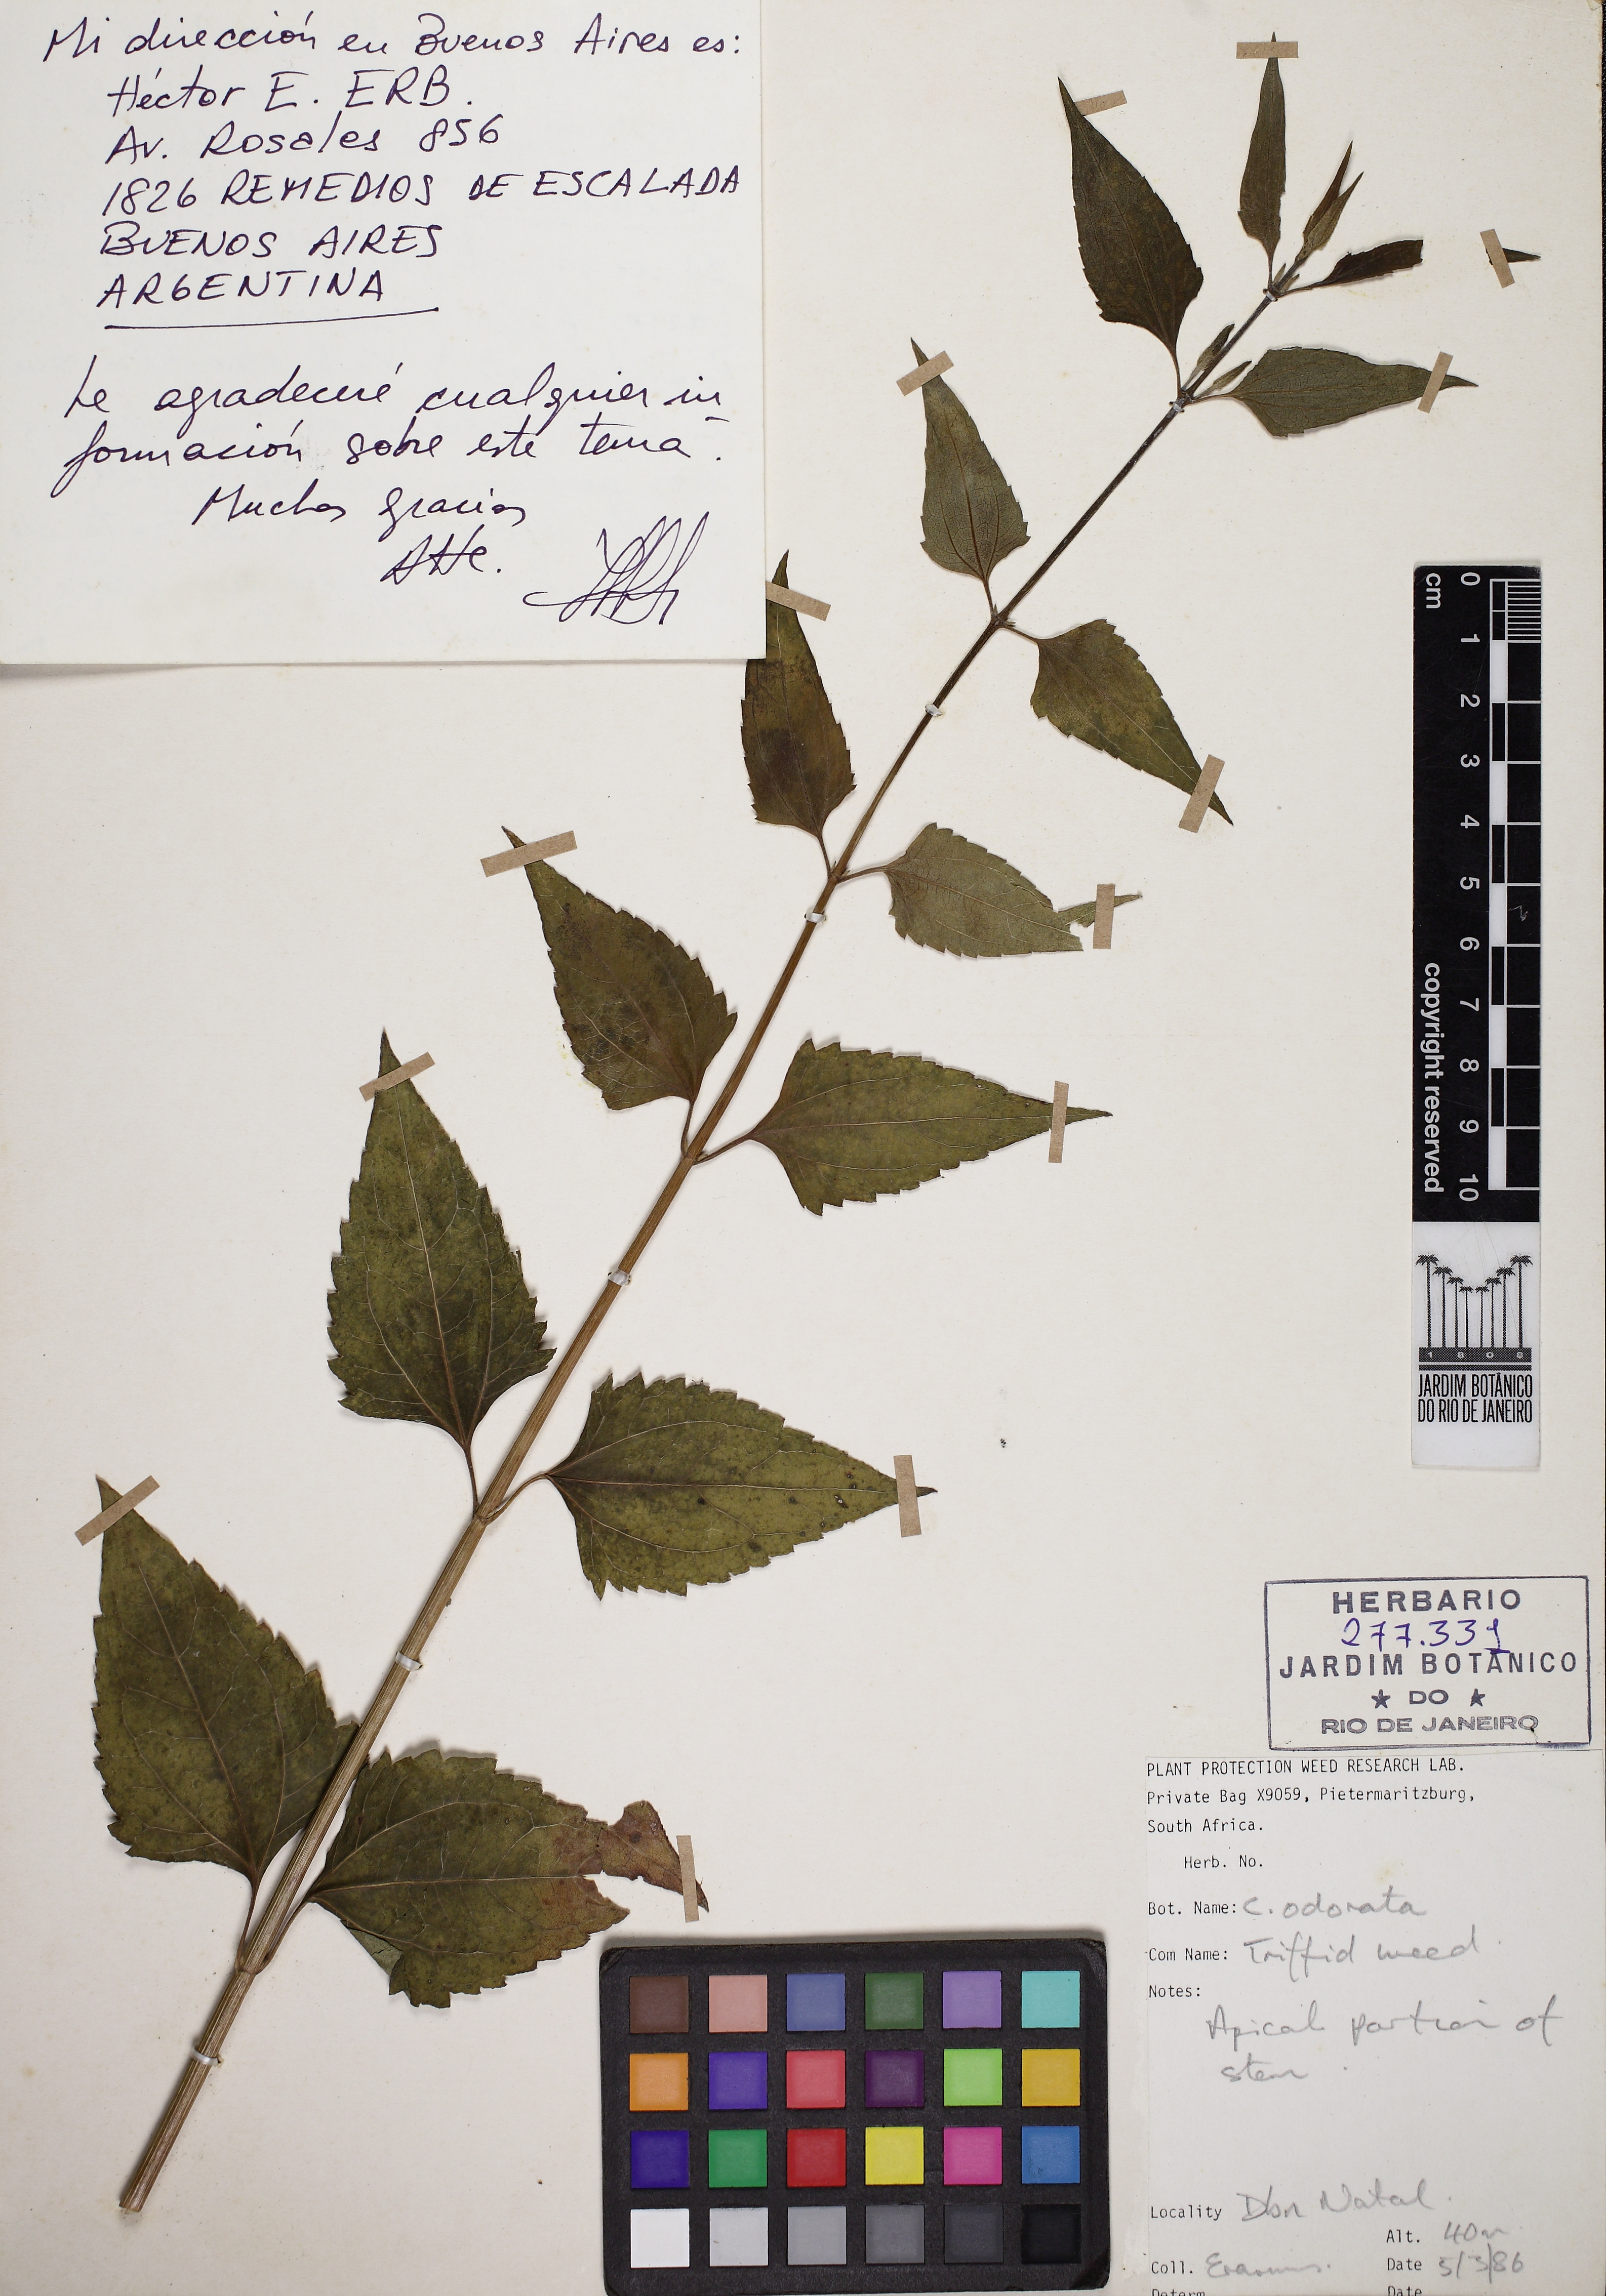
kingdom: Plantae
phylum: Tracheophyta
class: Magnoliopsida
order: Asterales
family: Asteraceae
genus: Chromolaena
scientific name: Chromolaena odorata
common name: Siamweed
